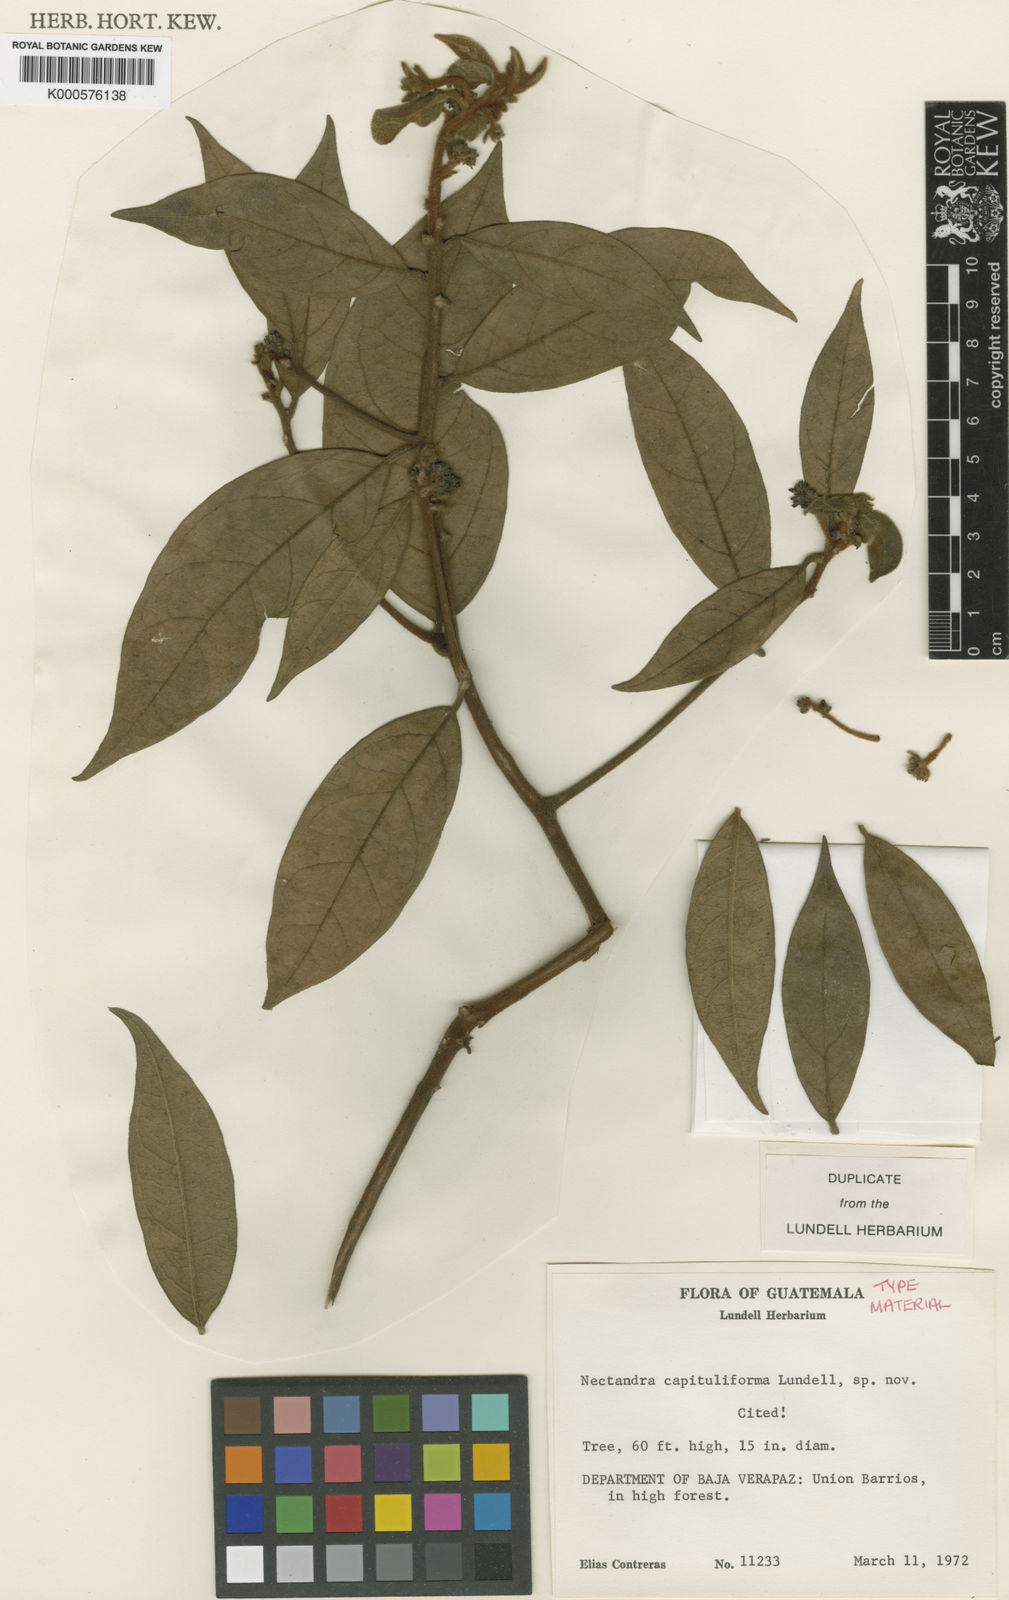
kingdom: Plantae
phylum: Tracheophyta
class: Magnoliopsida
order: Laurales
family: Lauraceae
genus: Ocotea
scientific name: Ocotea purpurea
